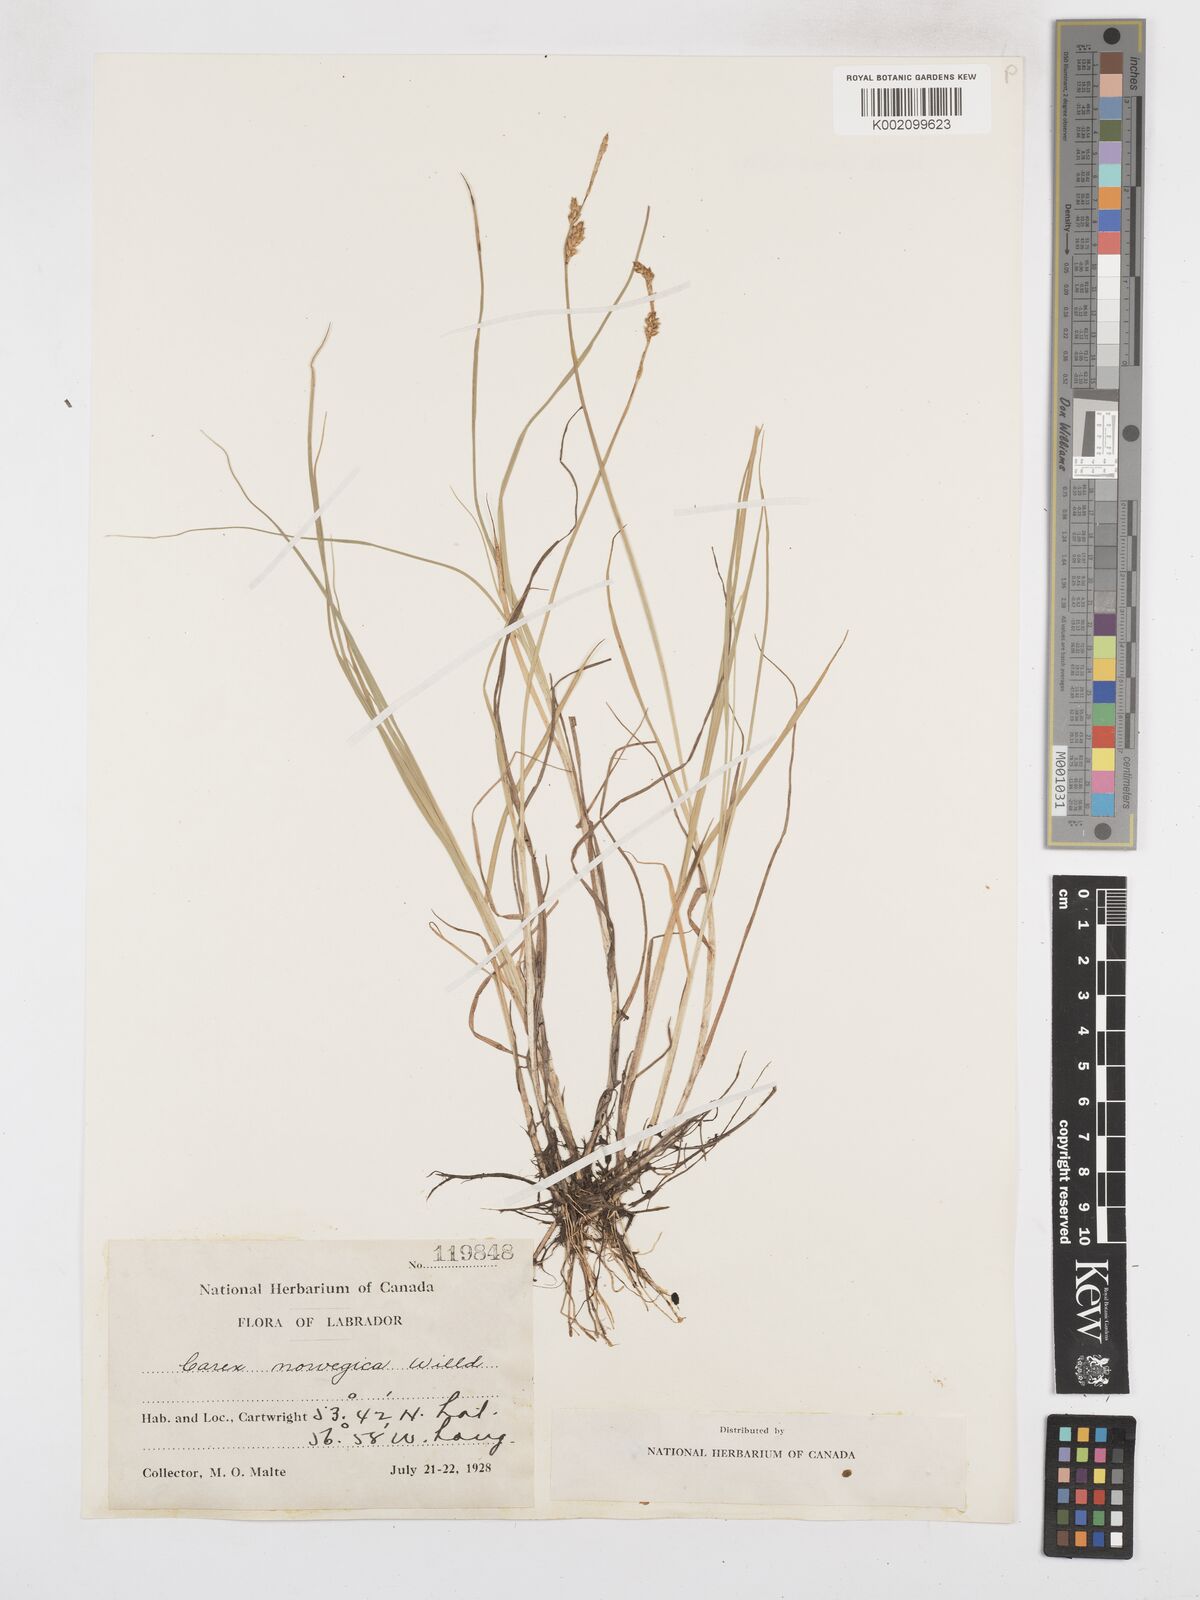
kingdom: Plantae
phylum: Tracheophyta
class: Liliopsida
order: Poales
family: Cyperaceae
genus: Carex
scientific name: Carex mackenziei
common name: Mackenzie's sedge
